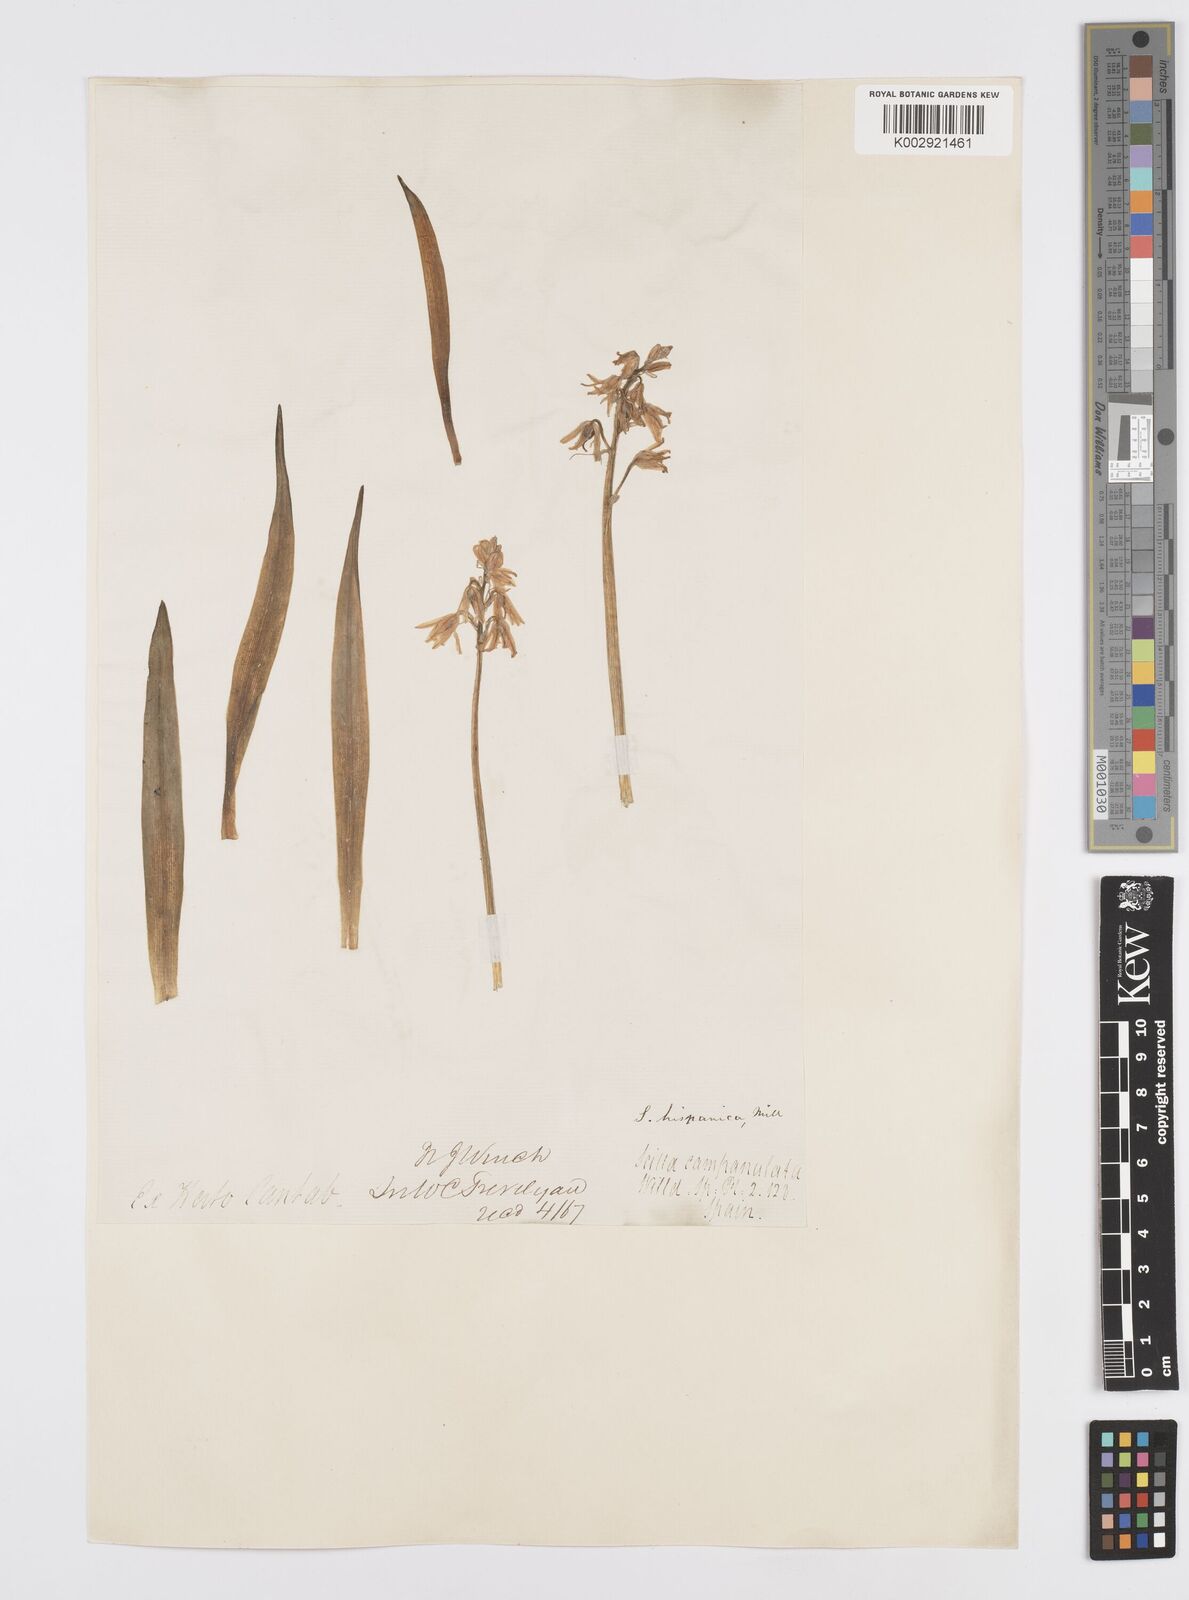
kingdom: Plantae
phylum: Tracheophyta
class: Liliopsida
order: Asparagales
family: Asparagaceae
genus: Hyacinthoides
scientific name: Hyacinthoides hispanica
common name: Spanish bluebell
